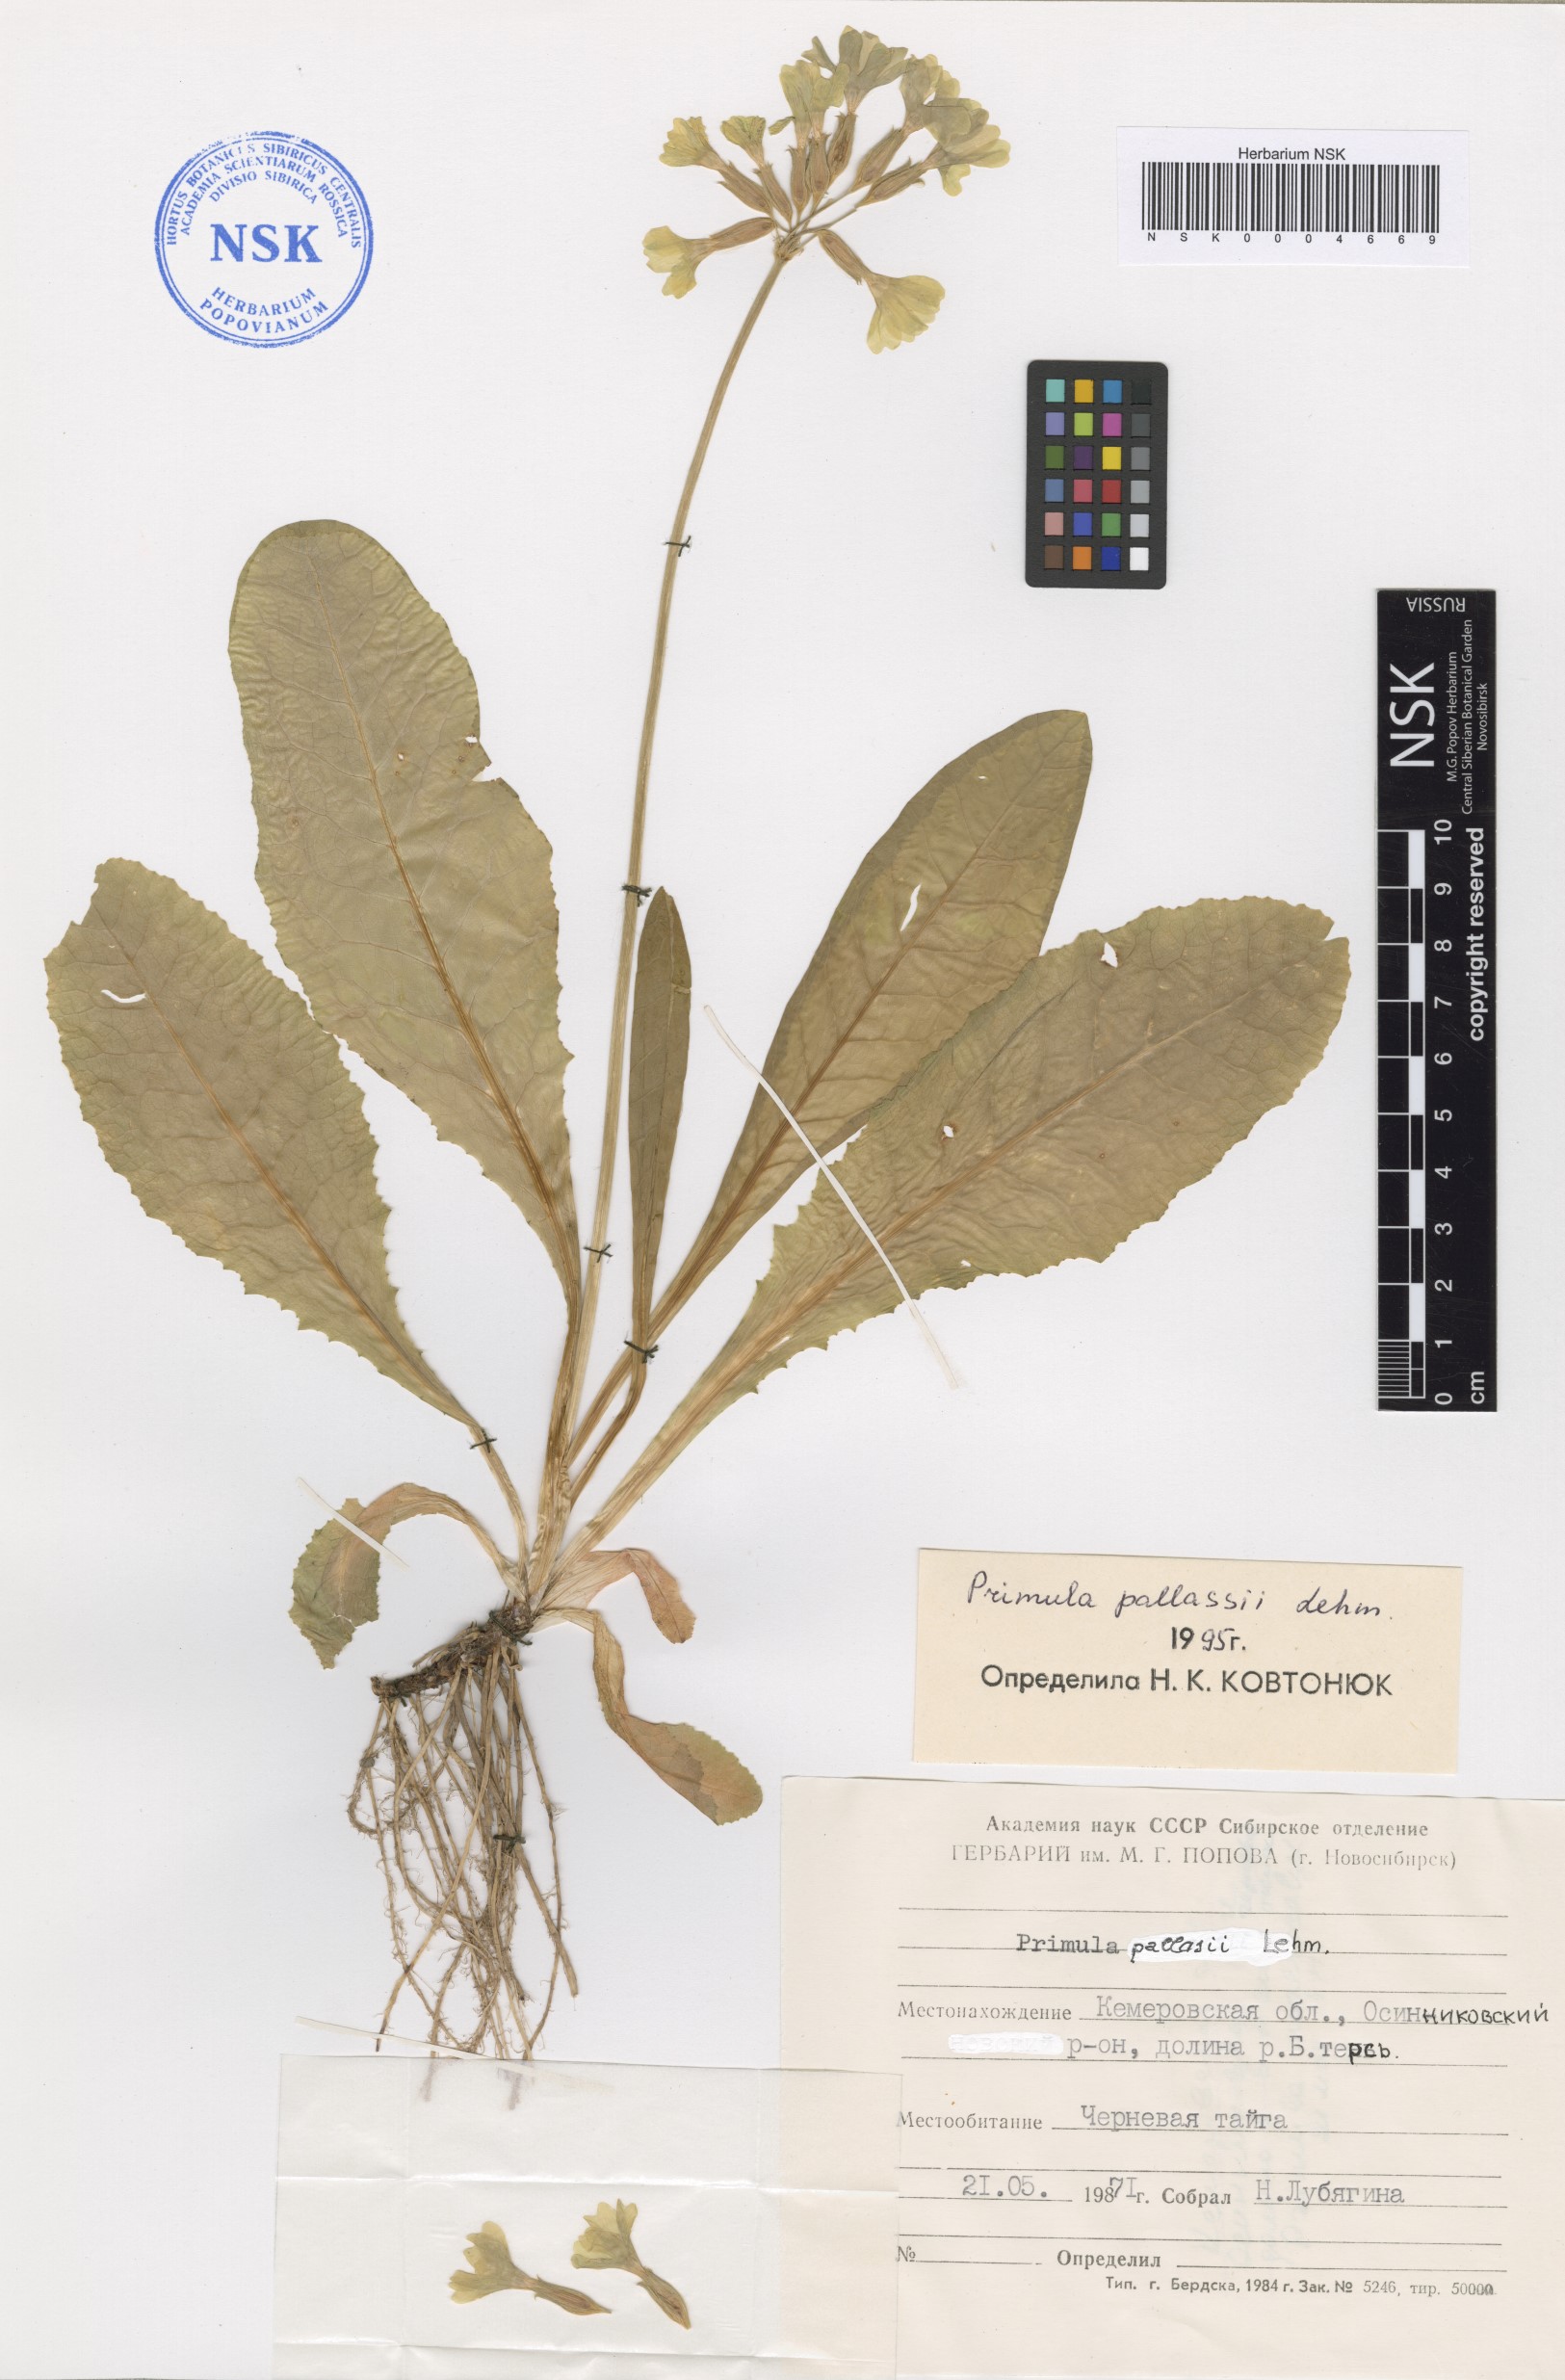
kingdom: Plantae
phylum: Tracheophyta
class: Magnoliopsida
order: Ericales
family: Primulaceae
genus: Primula
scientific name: Primula elatior
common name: Oxlip
